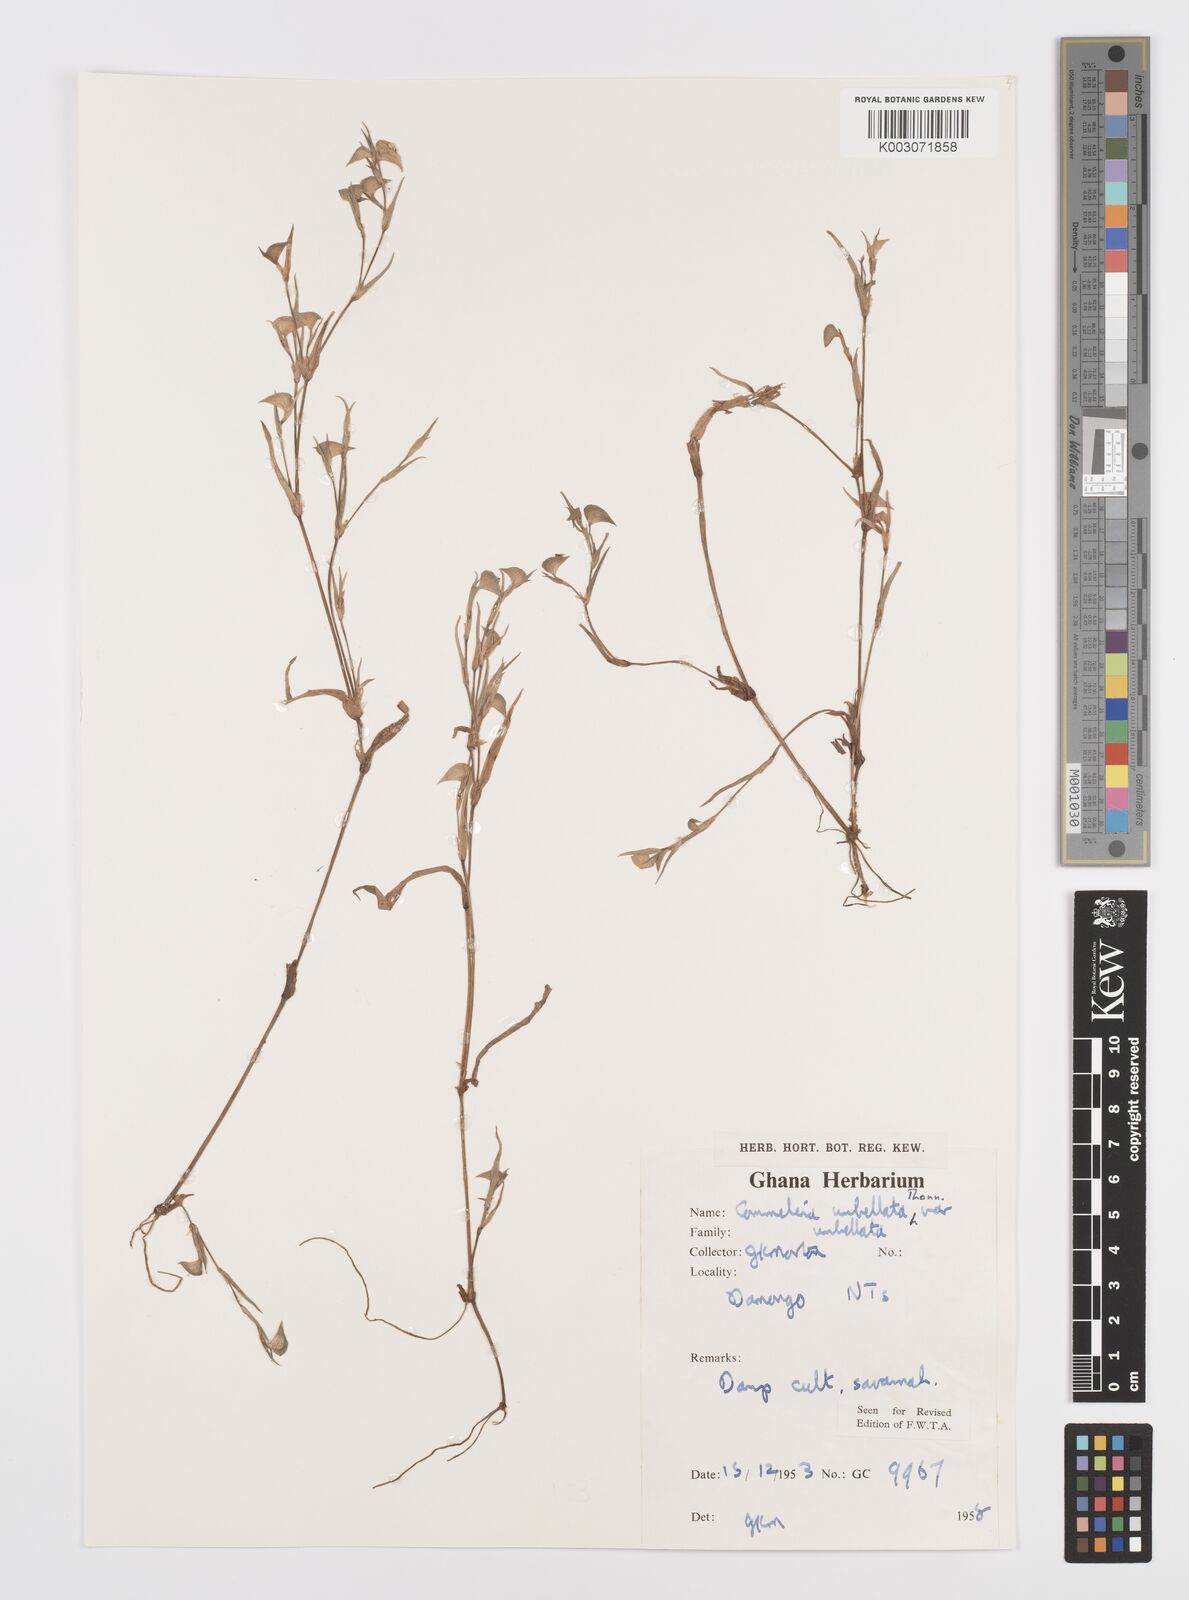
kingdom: Plantae
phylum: Tracheophyta
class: Liliopsida
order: Commelinales
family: Commelinaceae
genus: Commelina
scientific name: Commelina
